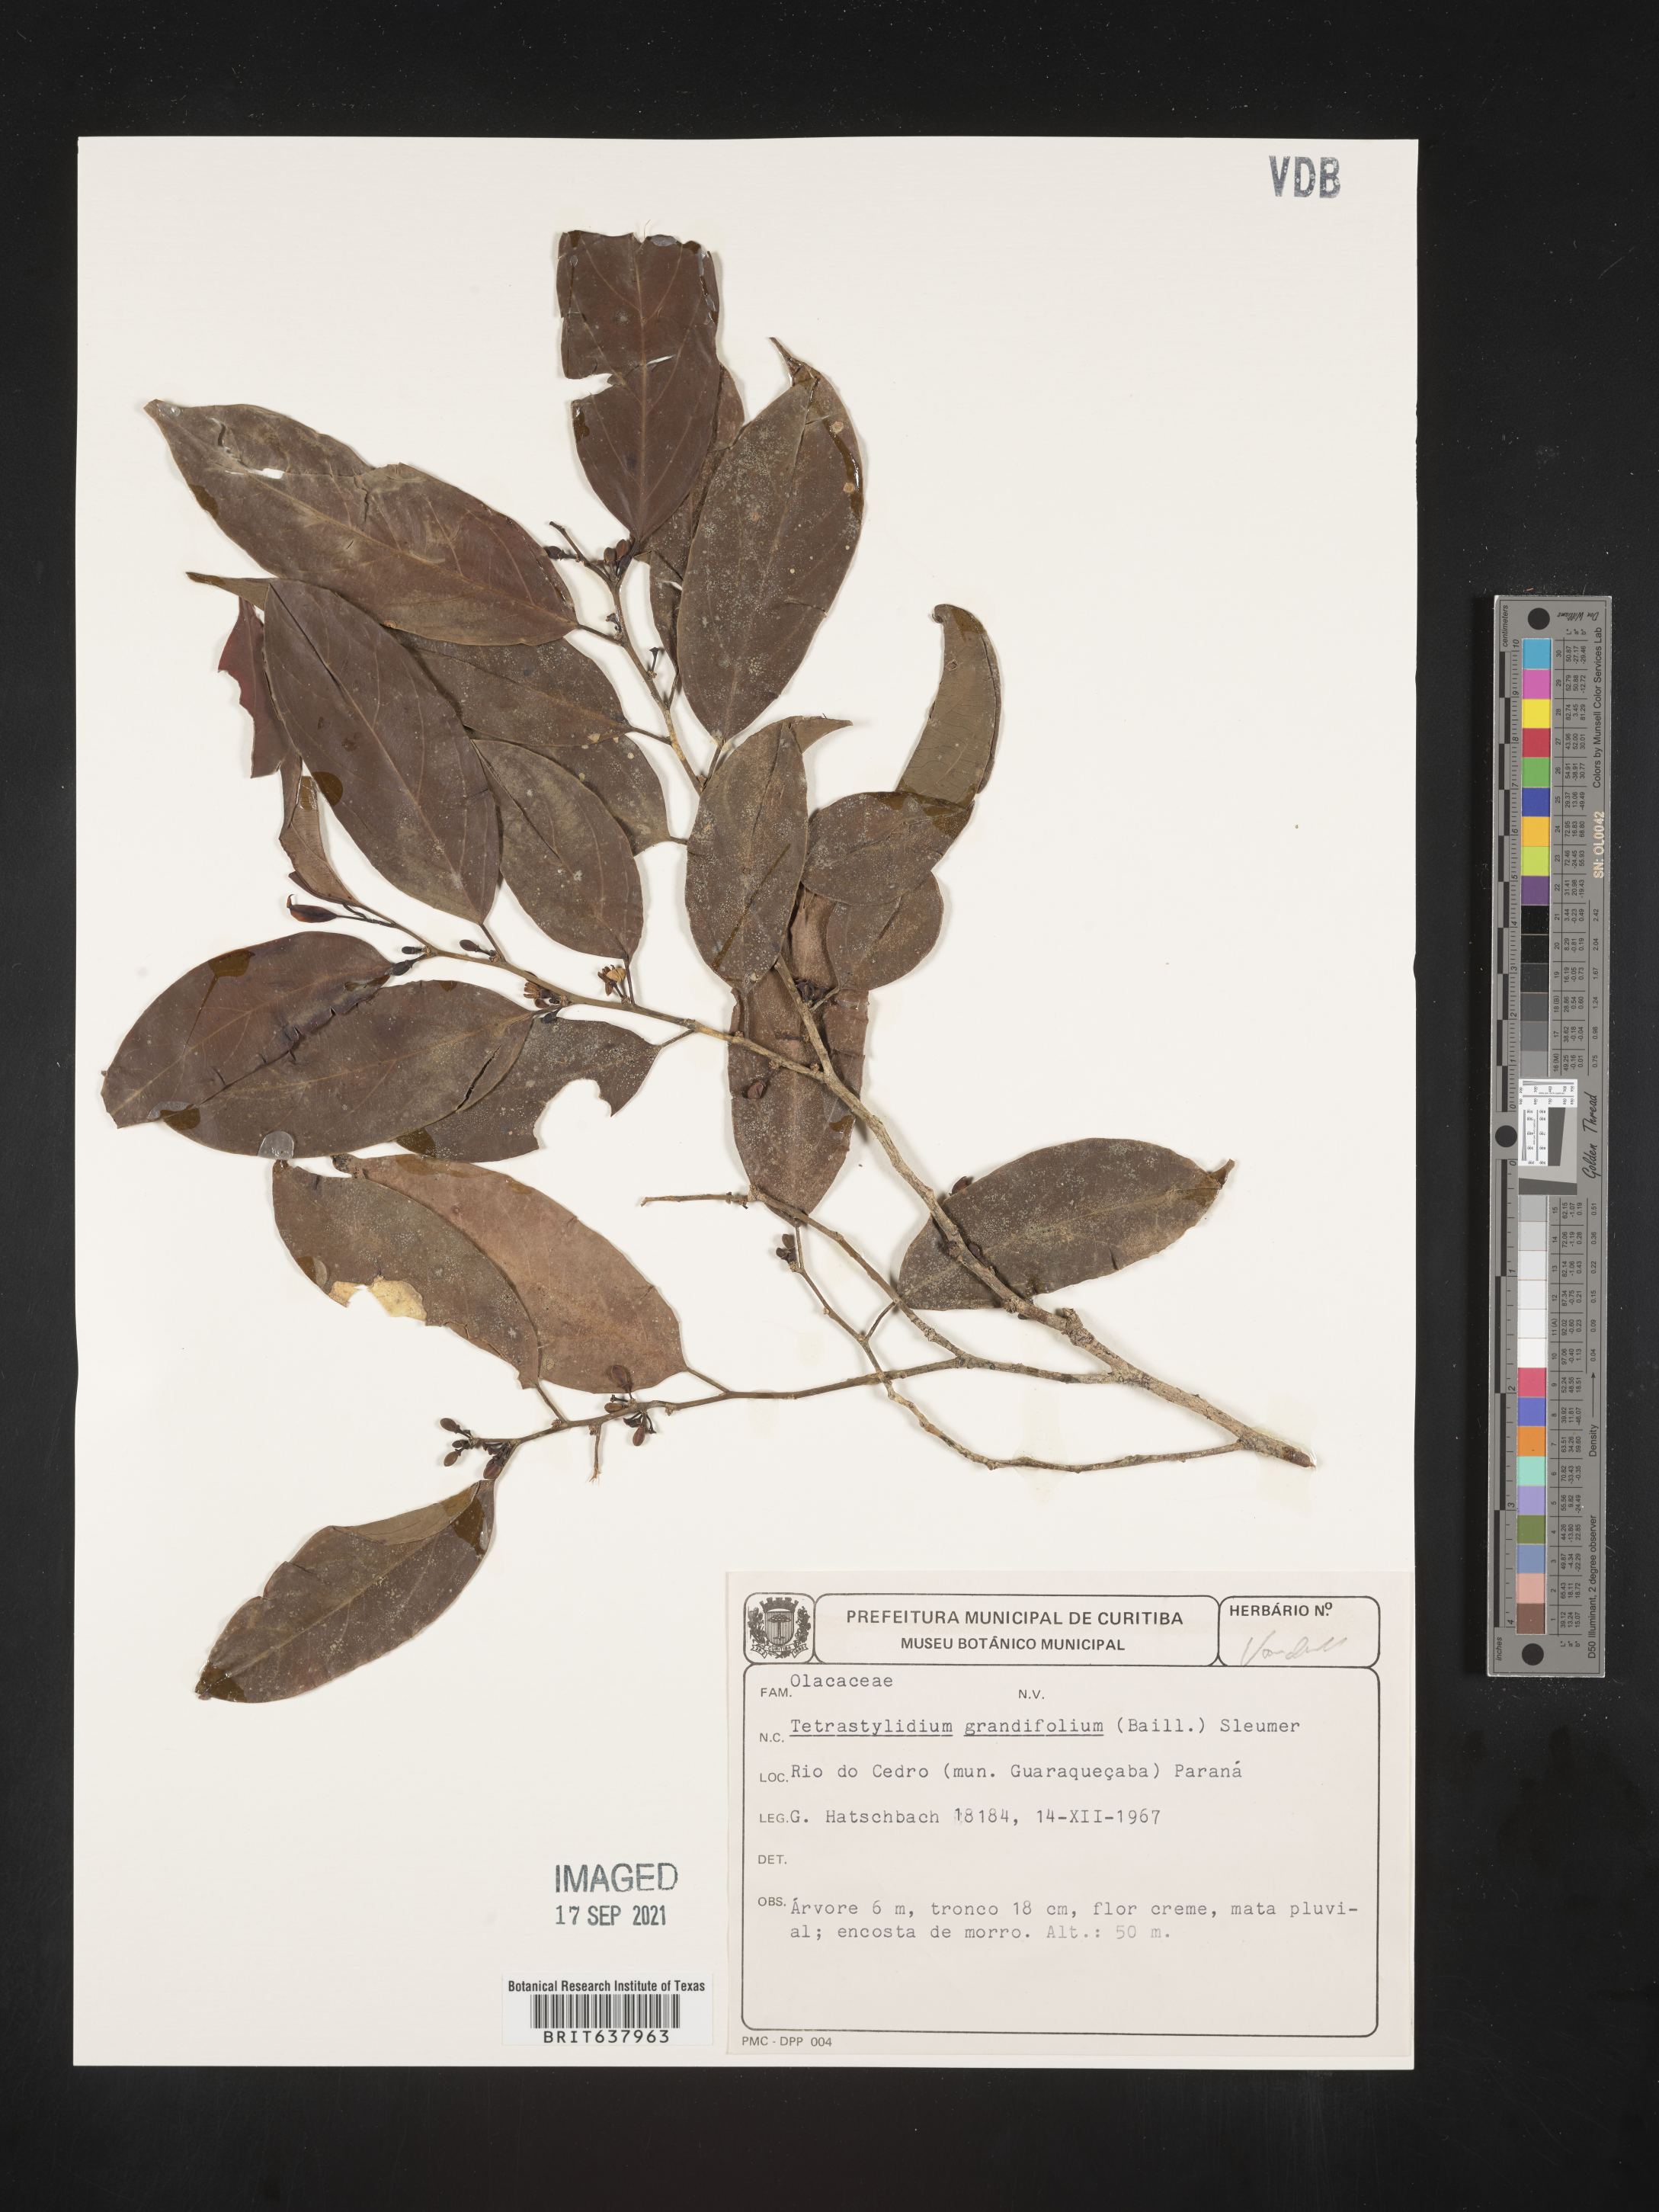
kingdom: Plantae
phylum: Tracheophyta
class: Magnoliopsida
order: Santalales
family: Strombosiaceae
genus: Tetrastylidium
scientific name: Tetrastylidium
